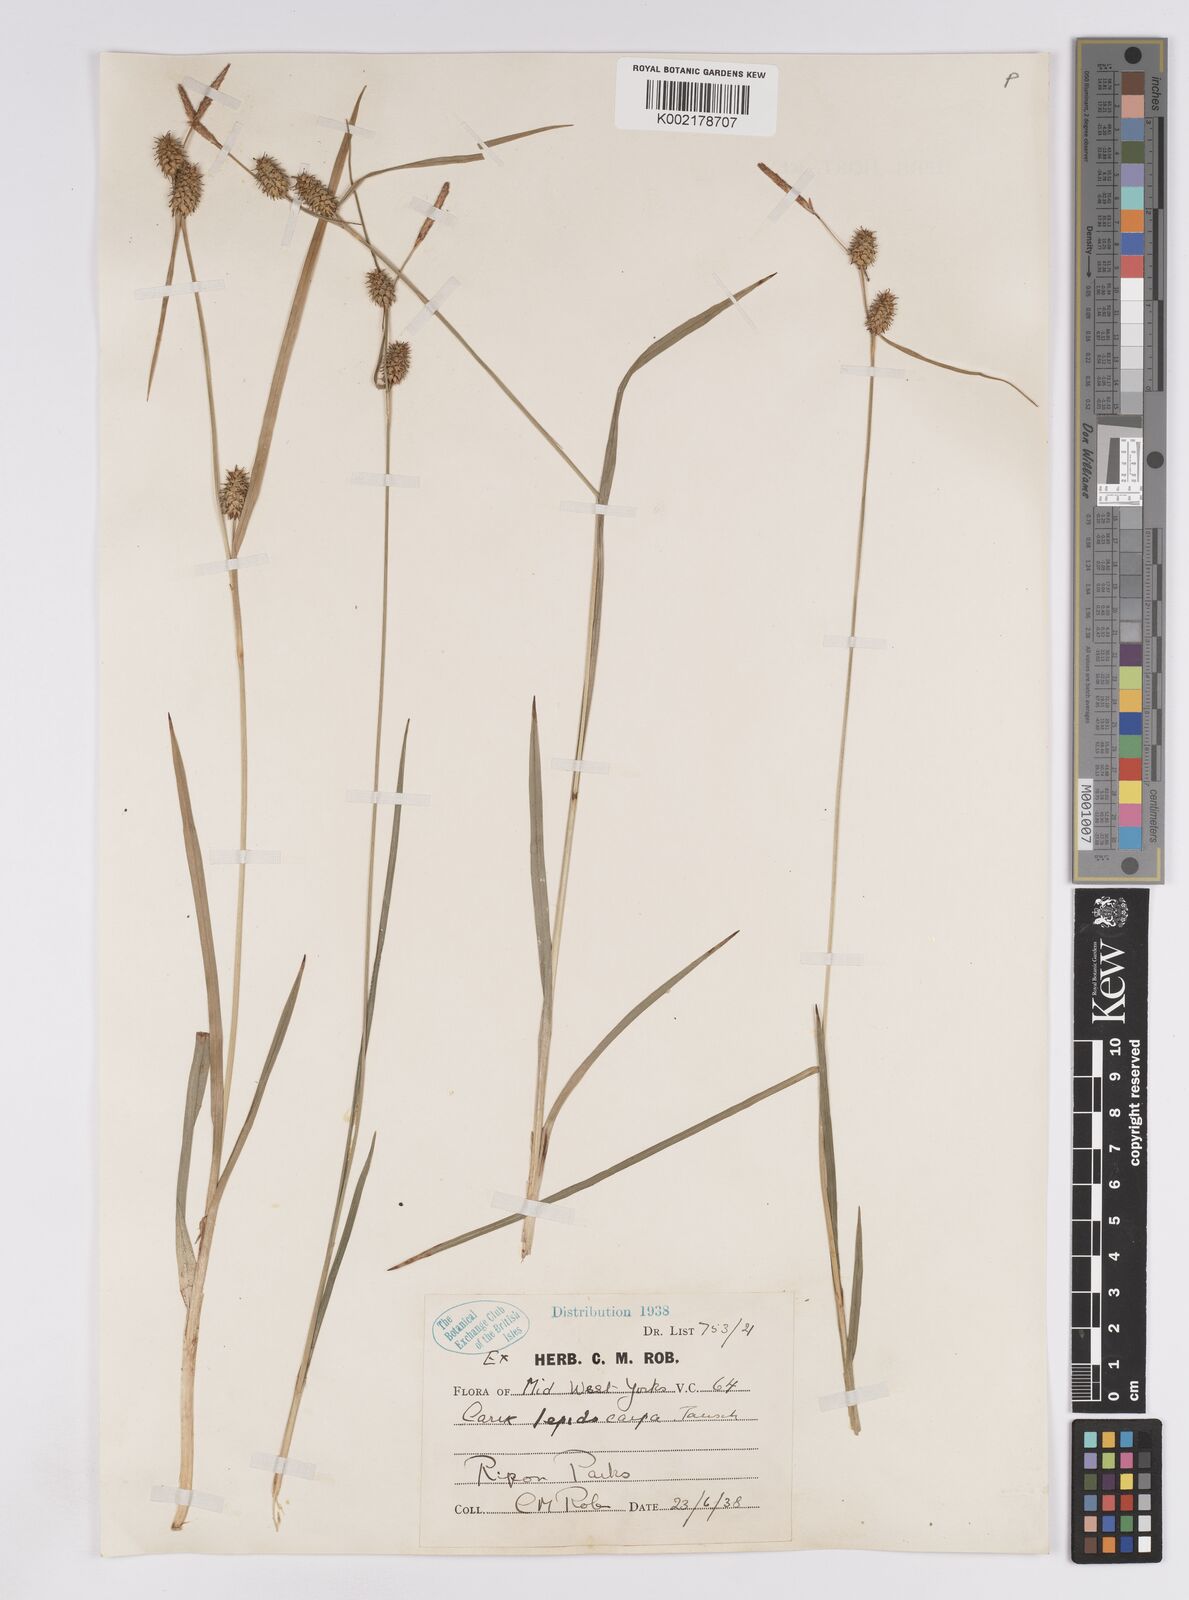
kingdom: Plantae
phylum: Tracheophyta
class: Liliopsida
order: Poales
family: Cyperaceae
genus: Carex
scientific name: Carex lepidocarpa
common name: Long-stalked yellow-sedge
